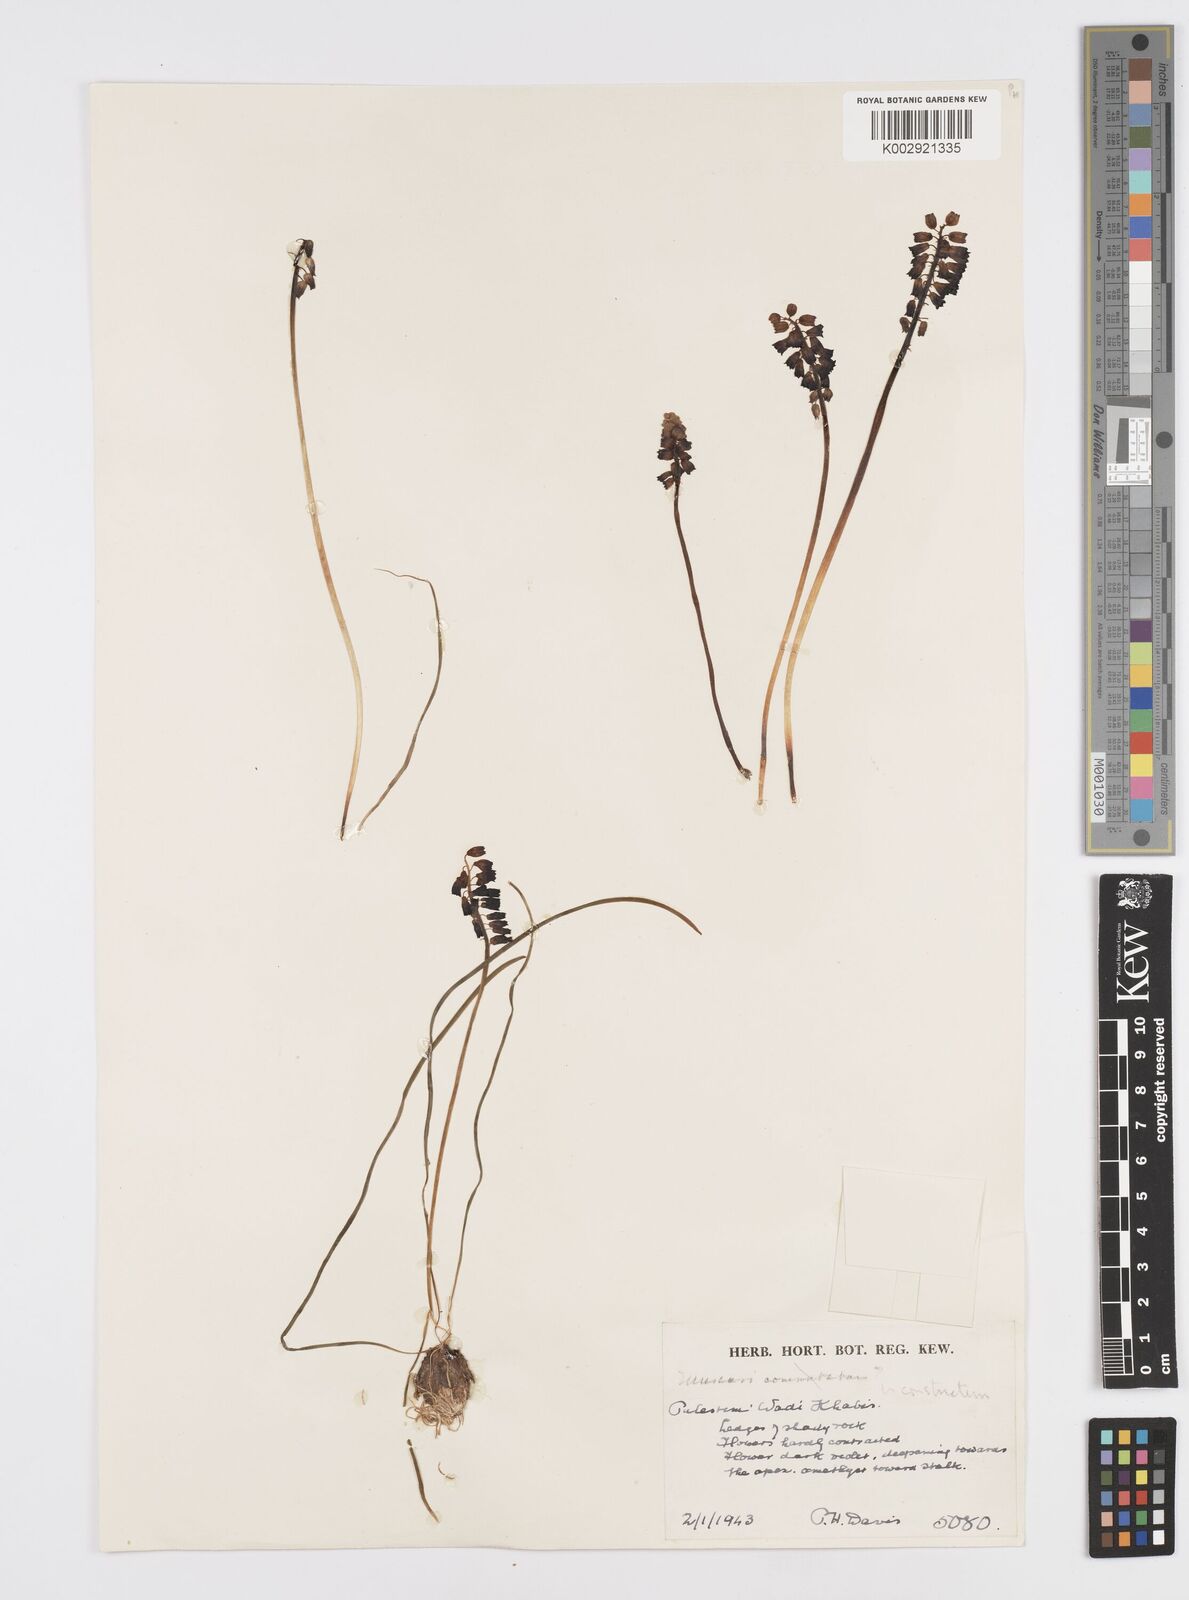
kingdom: Plantae
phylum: Tracheophyta
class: Liliopsida
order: Asparagales
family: Asparagaceae
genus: Muscari
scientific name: Muscari inconstrictum
